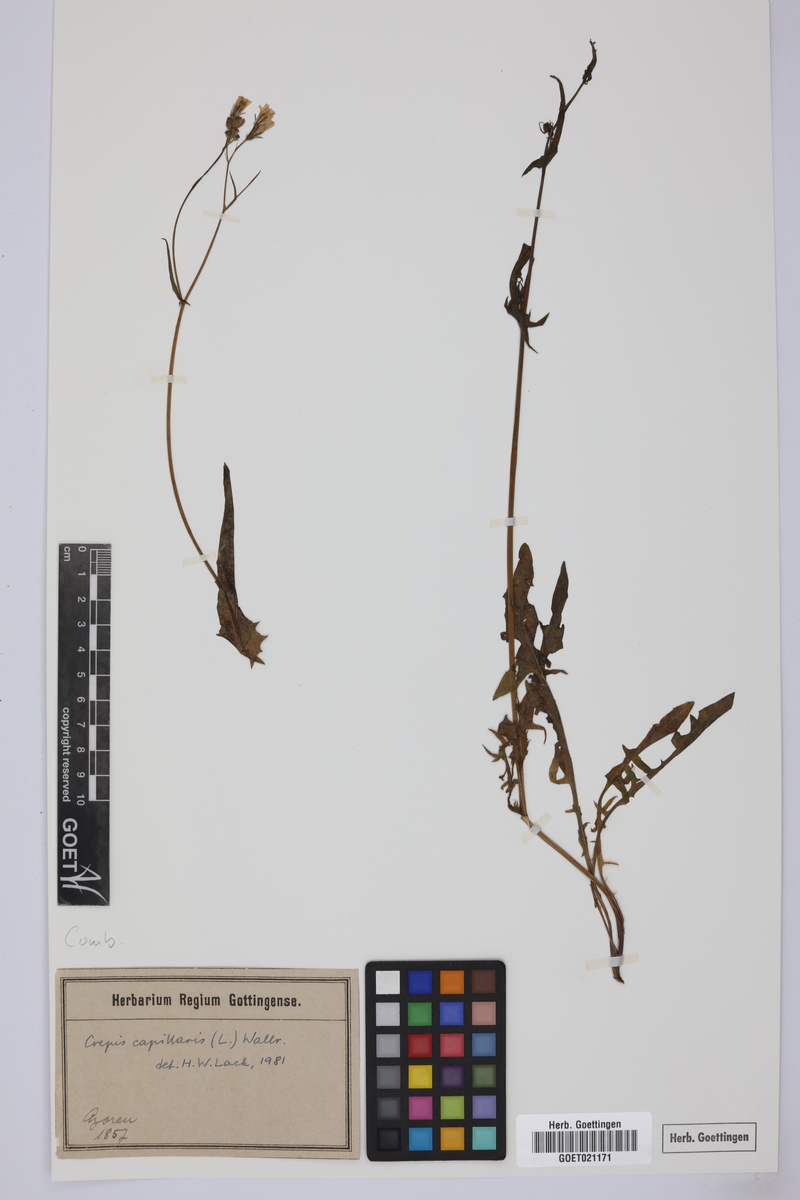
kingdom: Plantae
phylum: Tracheophyta
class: Magnoliopsida
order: Asterales
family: Asteraceae
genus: Crepis
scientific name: Crepis capillaris
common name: Smooth hawksbeard
